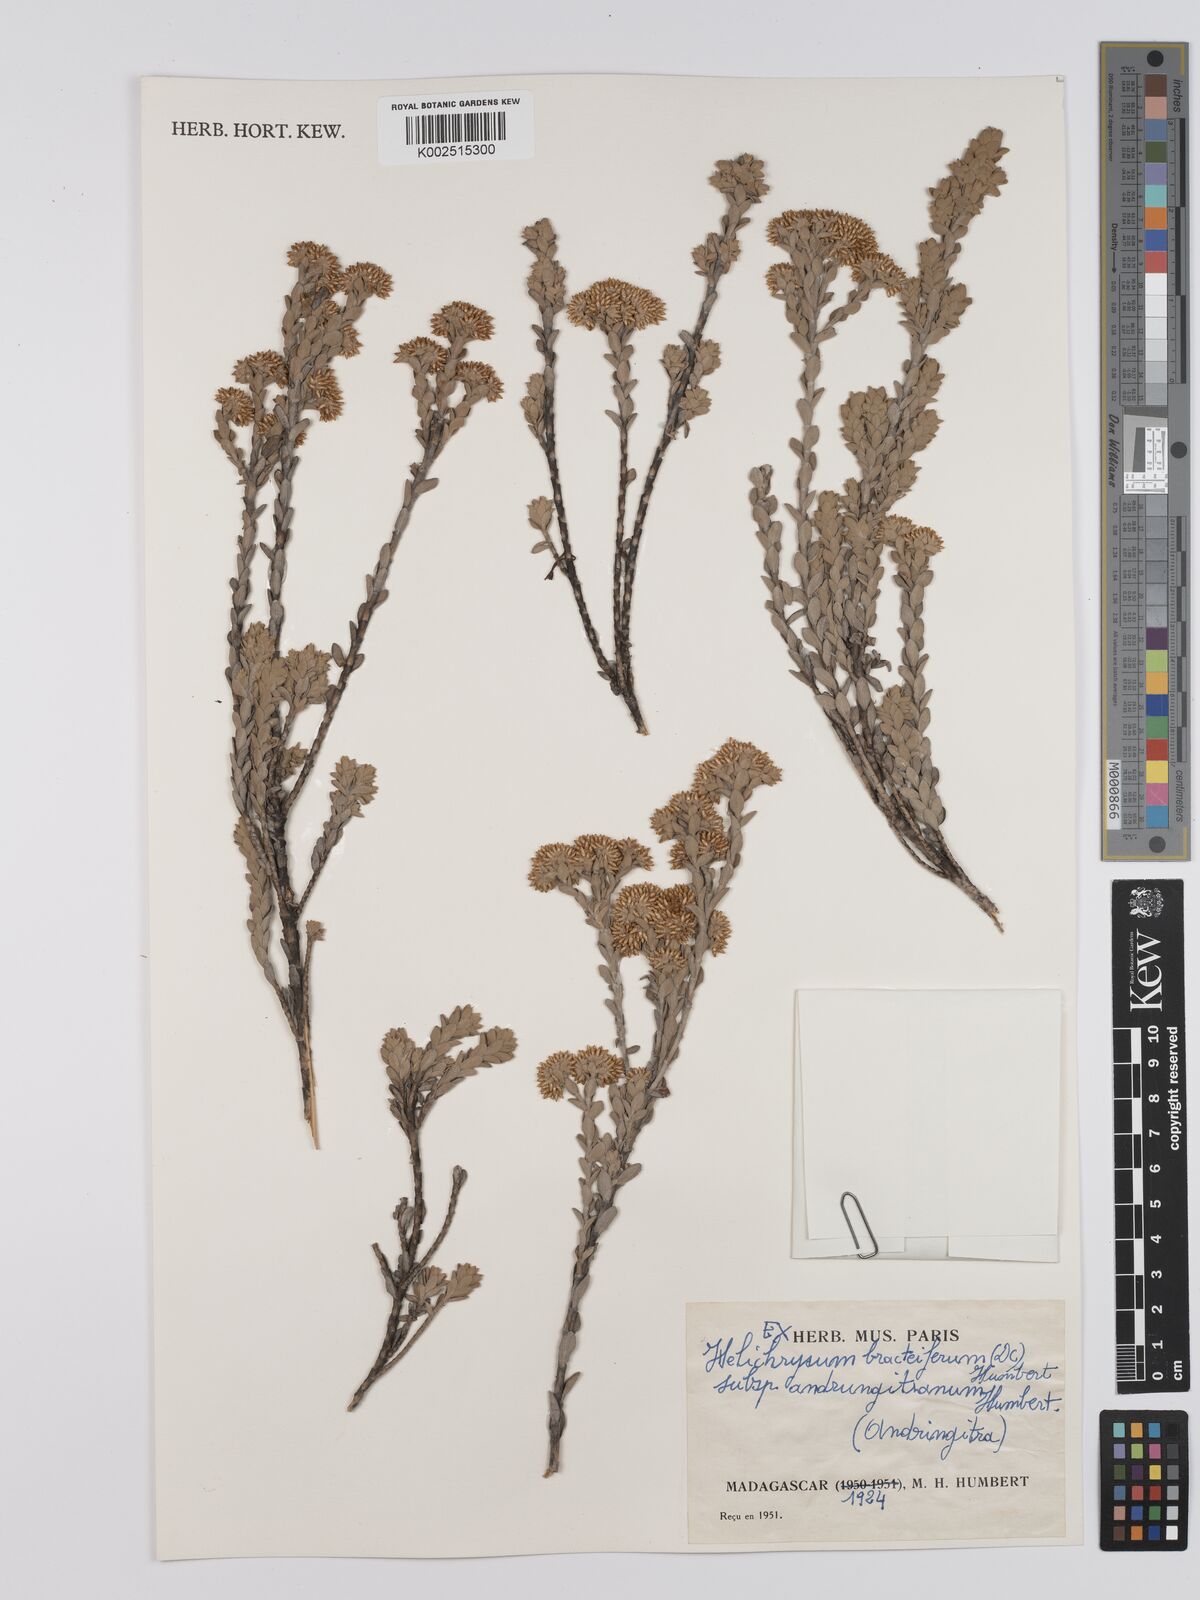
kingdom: Plantae
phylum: Tracheophyta
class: Magnoliopsida
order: Asterales
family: Asteraceae
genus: Helichrysum
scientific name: Helichrysum bracteiferum
